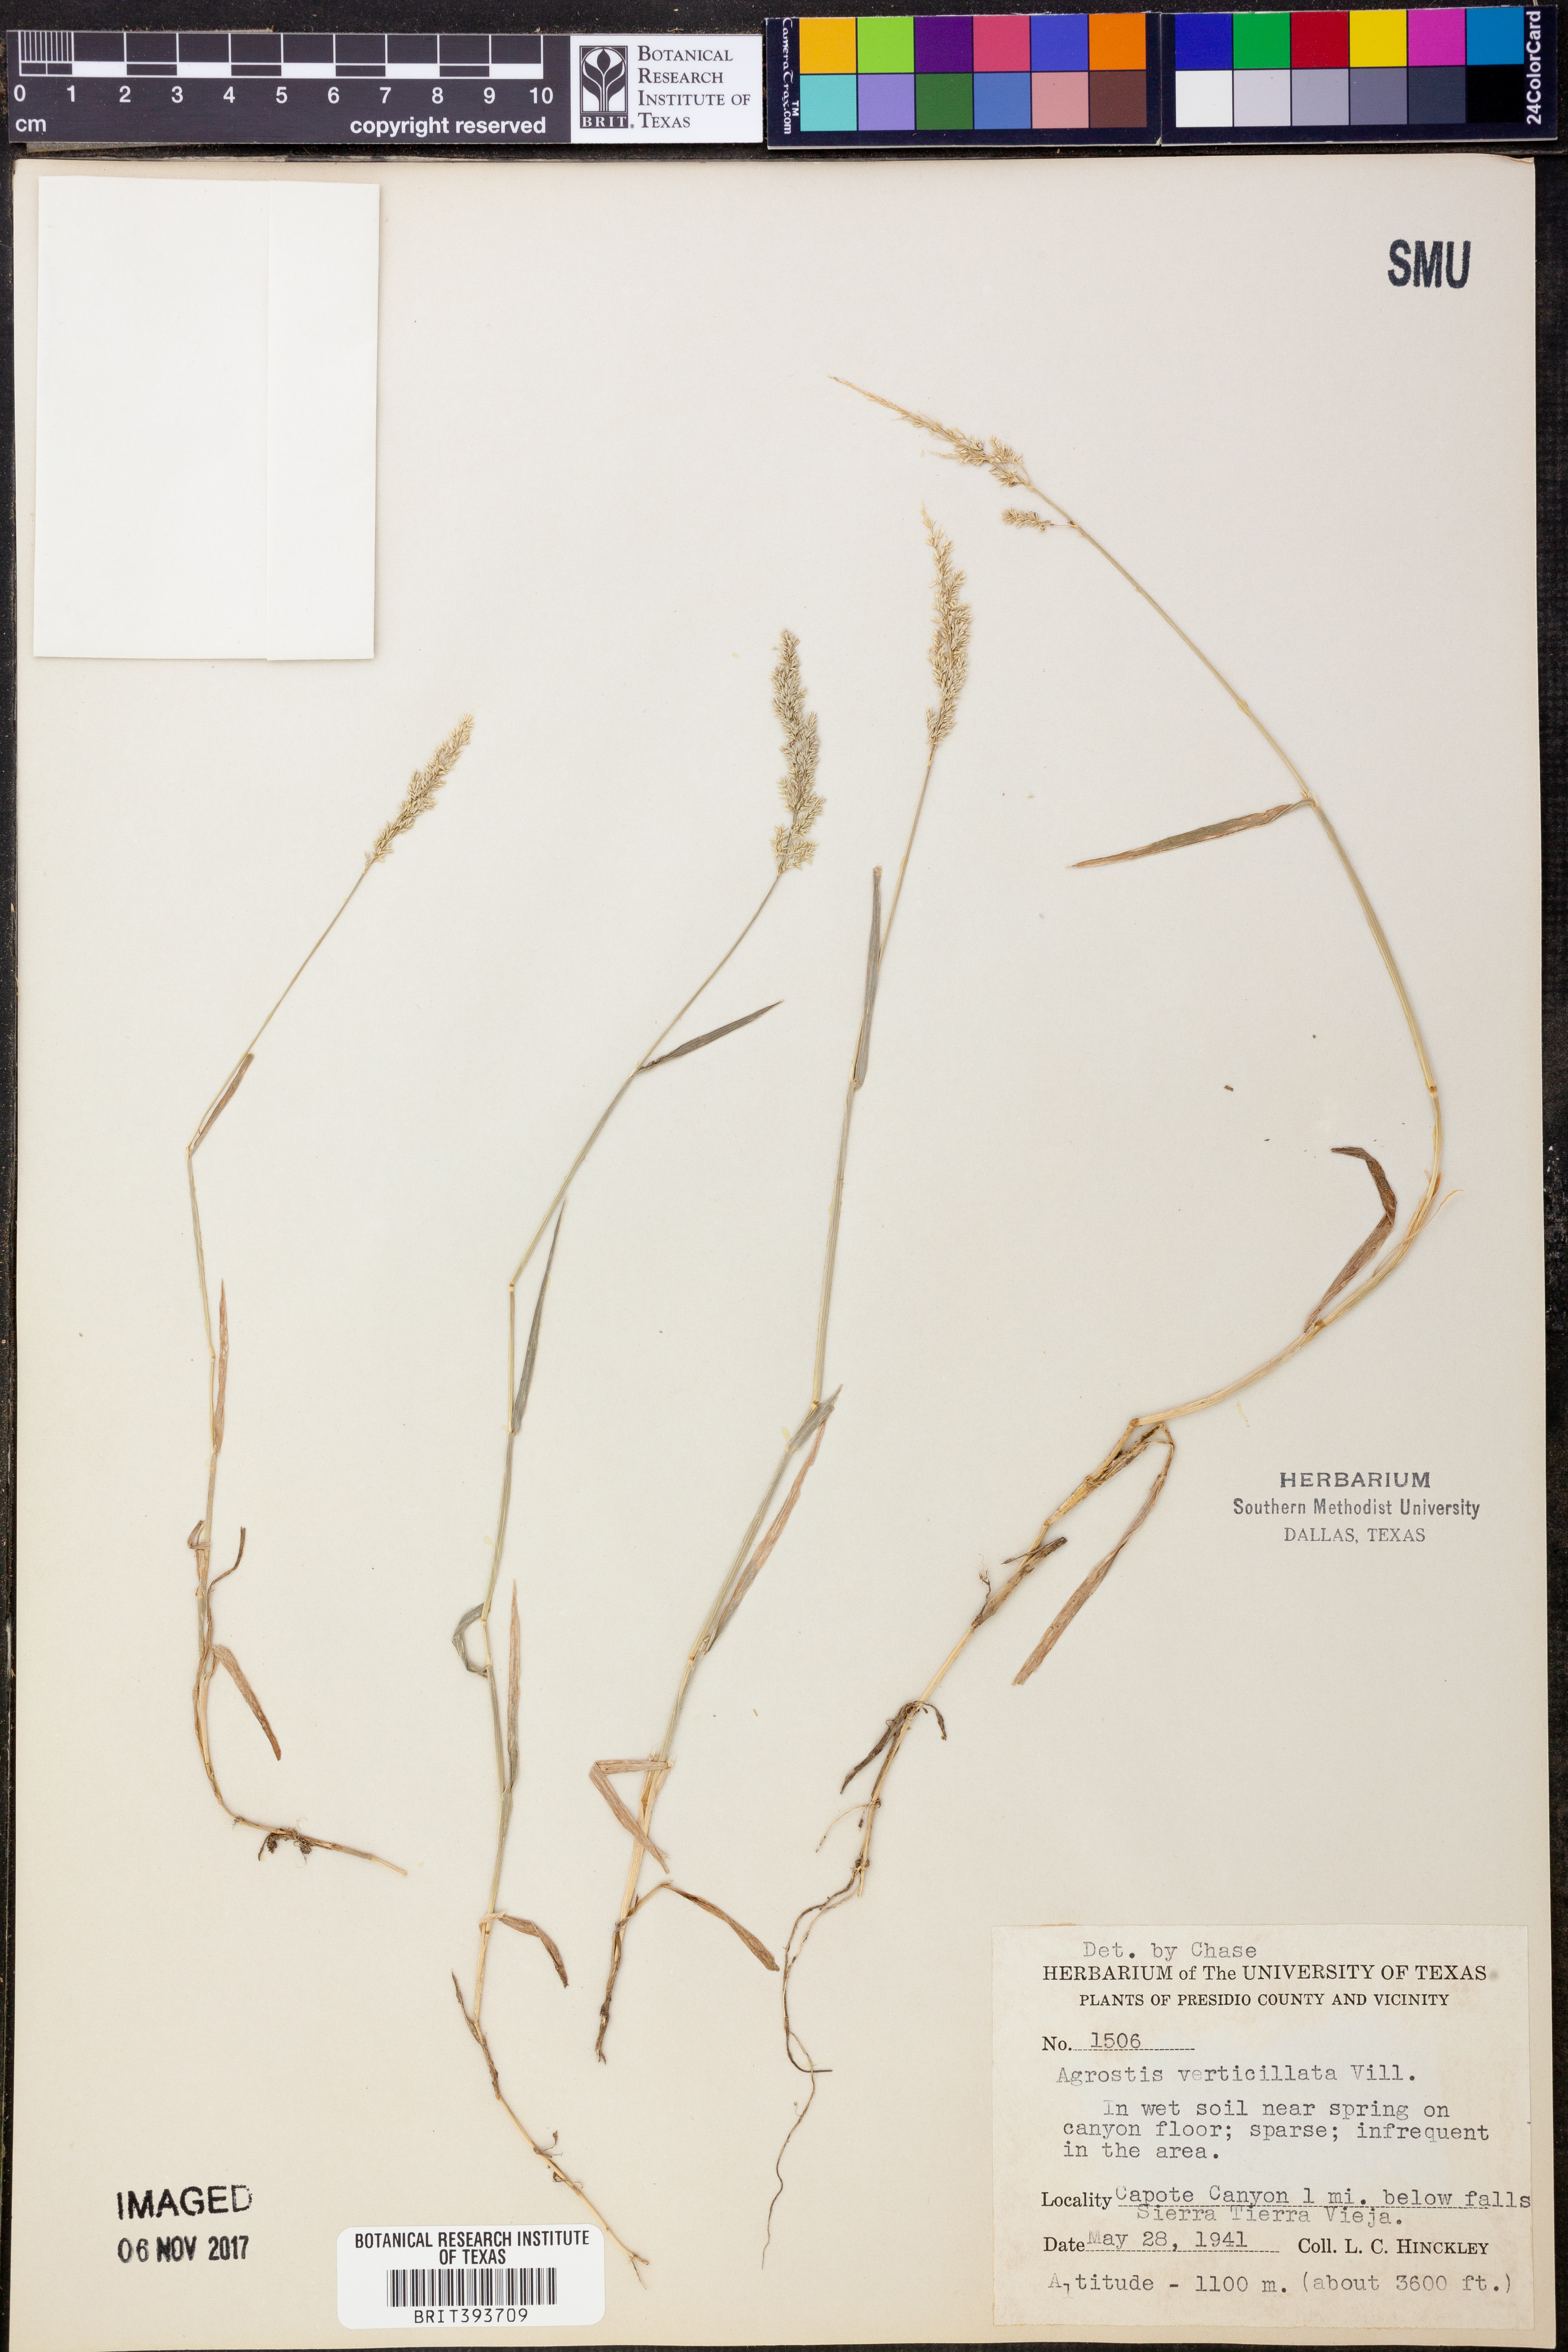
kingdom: Plantae
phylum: Tracheophyta
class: Liliopsida
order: Poales
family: Poaceae
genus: Polypogon
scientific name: Polypogon viridis
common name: Water bent
